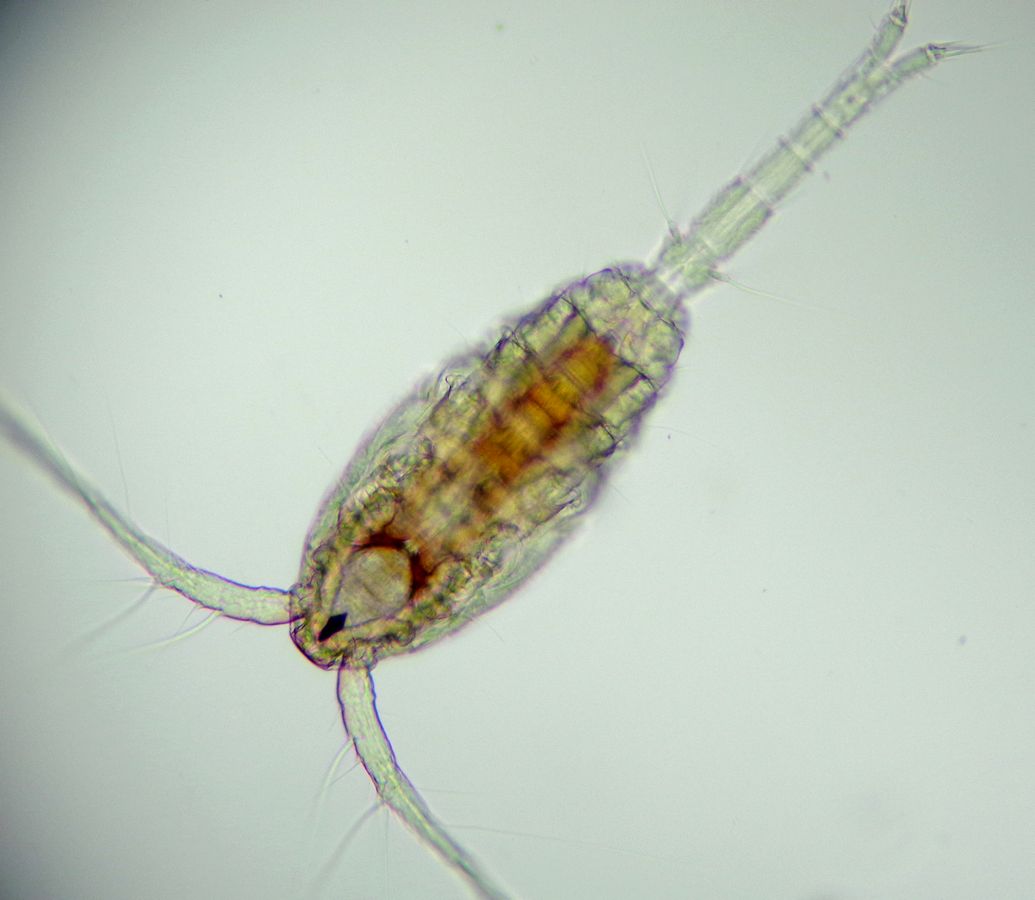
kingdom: Animalia
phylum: Arthropoda
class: Copepoda
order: Cyclopoida
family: Oithonidae
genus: Oithona
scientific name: Oithona similis
